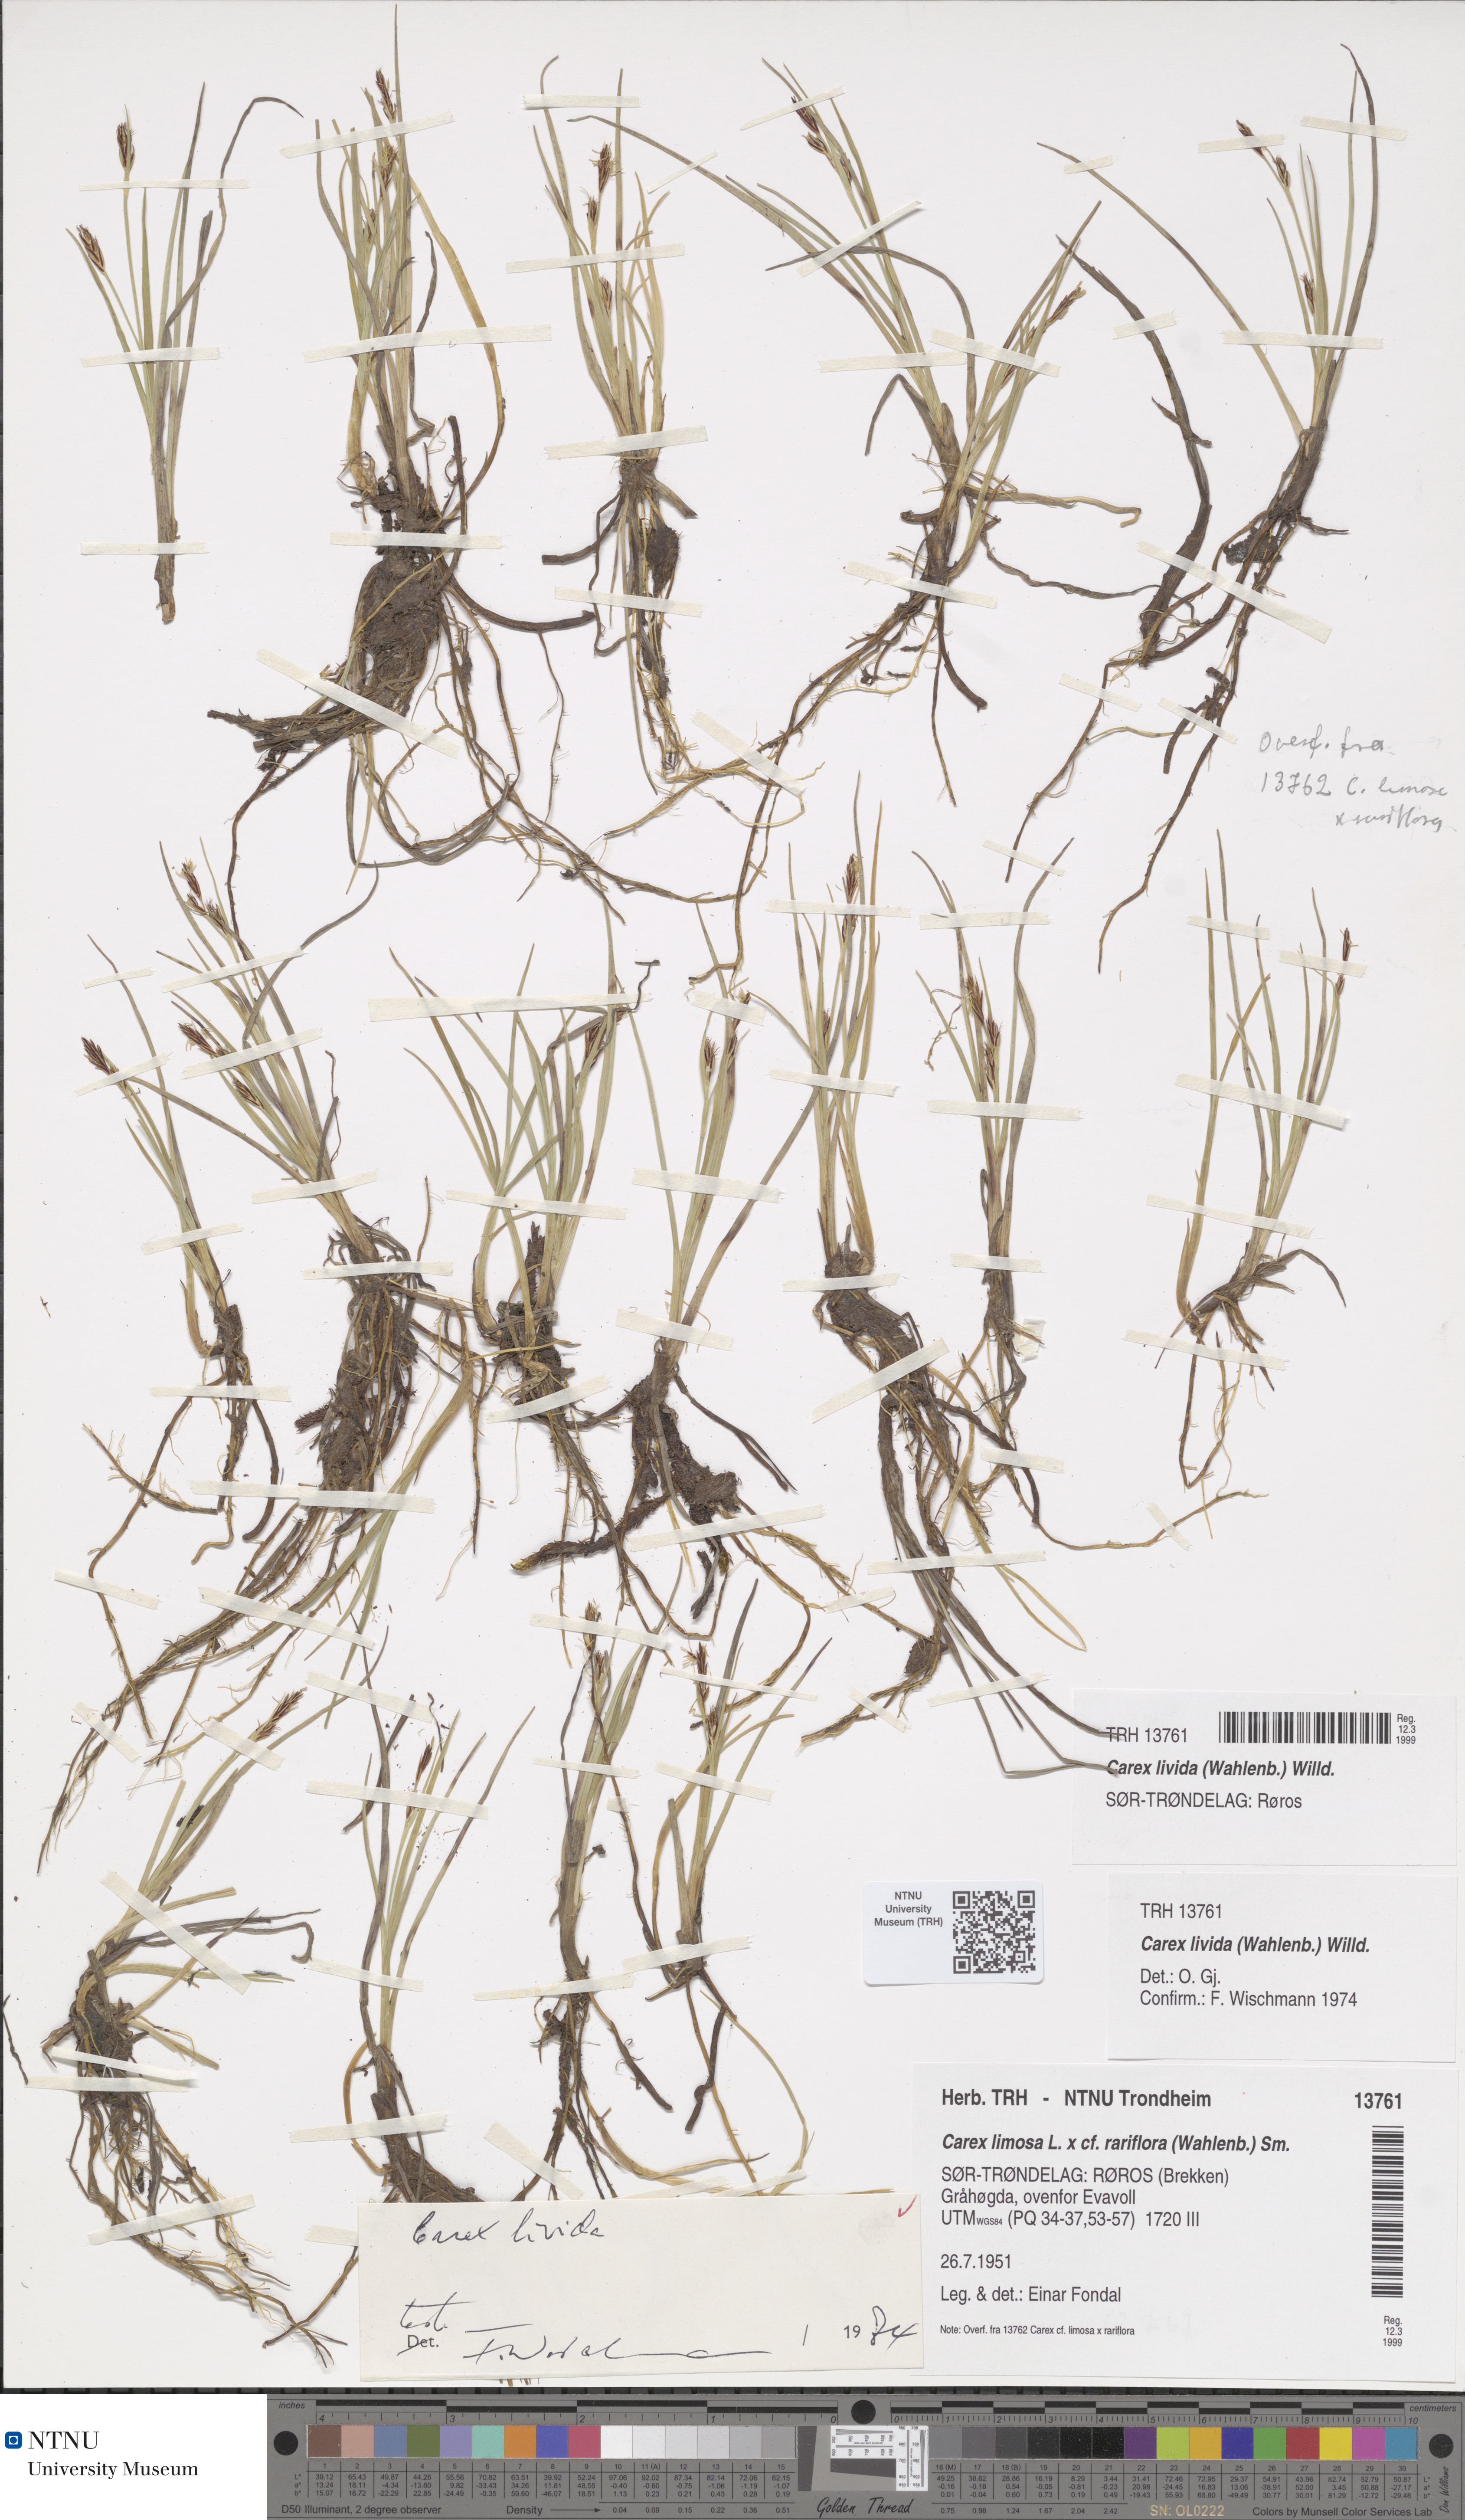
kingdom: Plantae
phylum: Tracheophyta
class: Liliopsida
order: Poales
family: Cyperaceae
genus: Carex
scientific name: Carex livida
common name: Livid sedge
